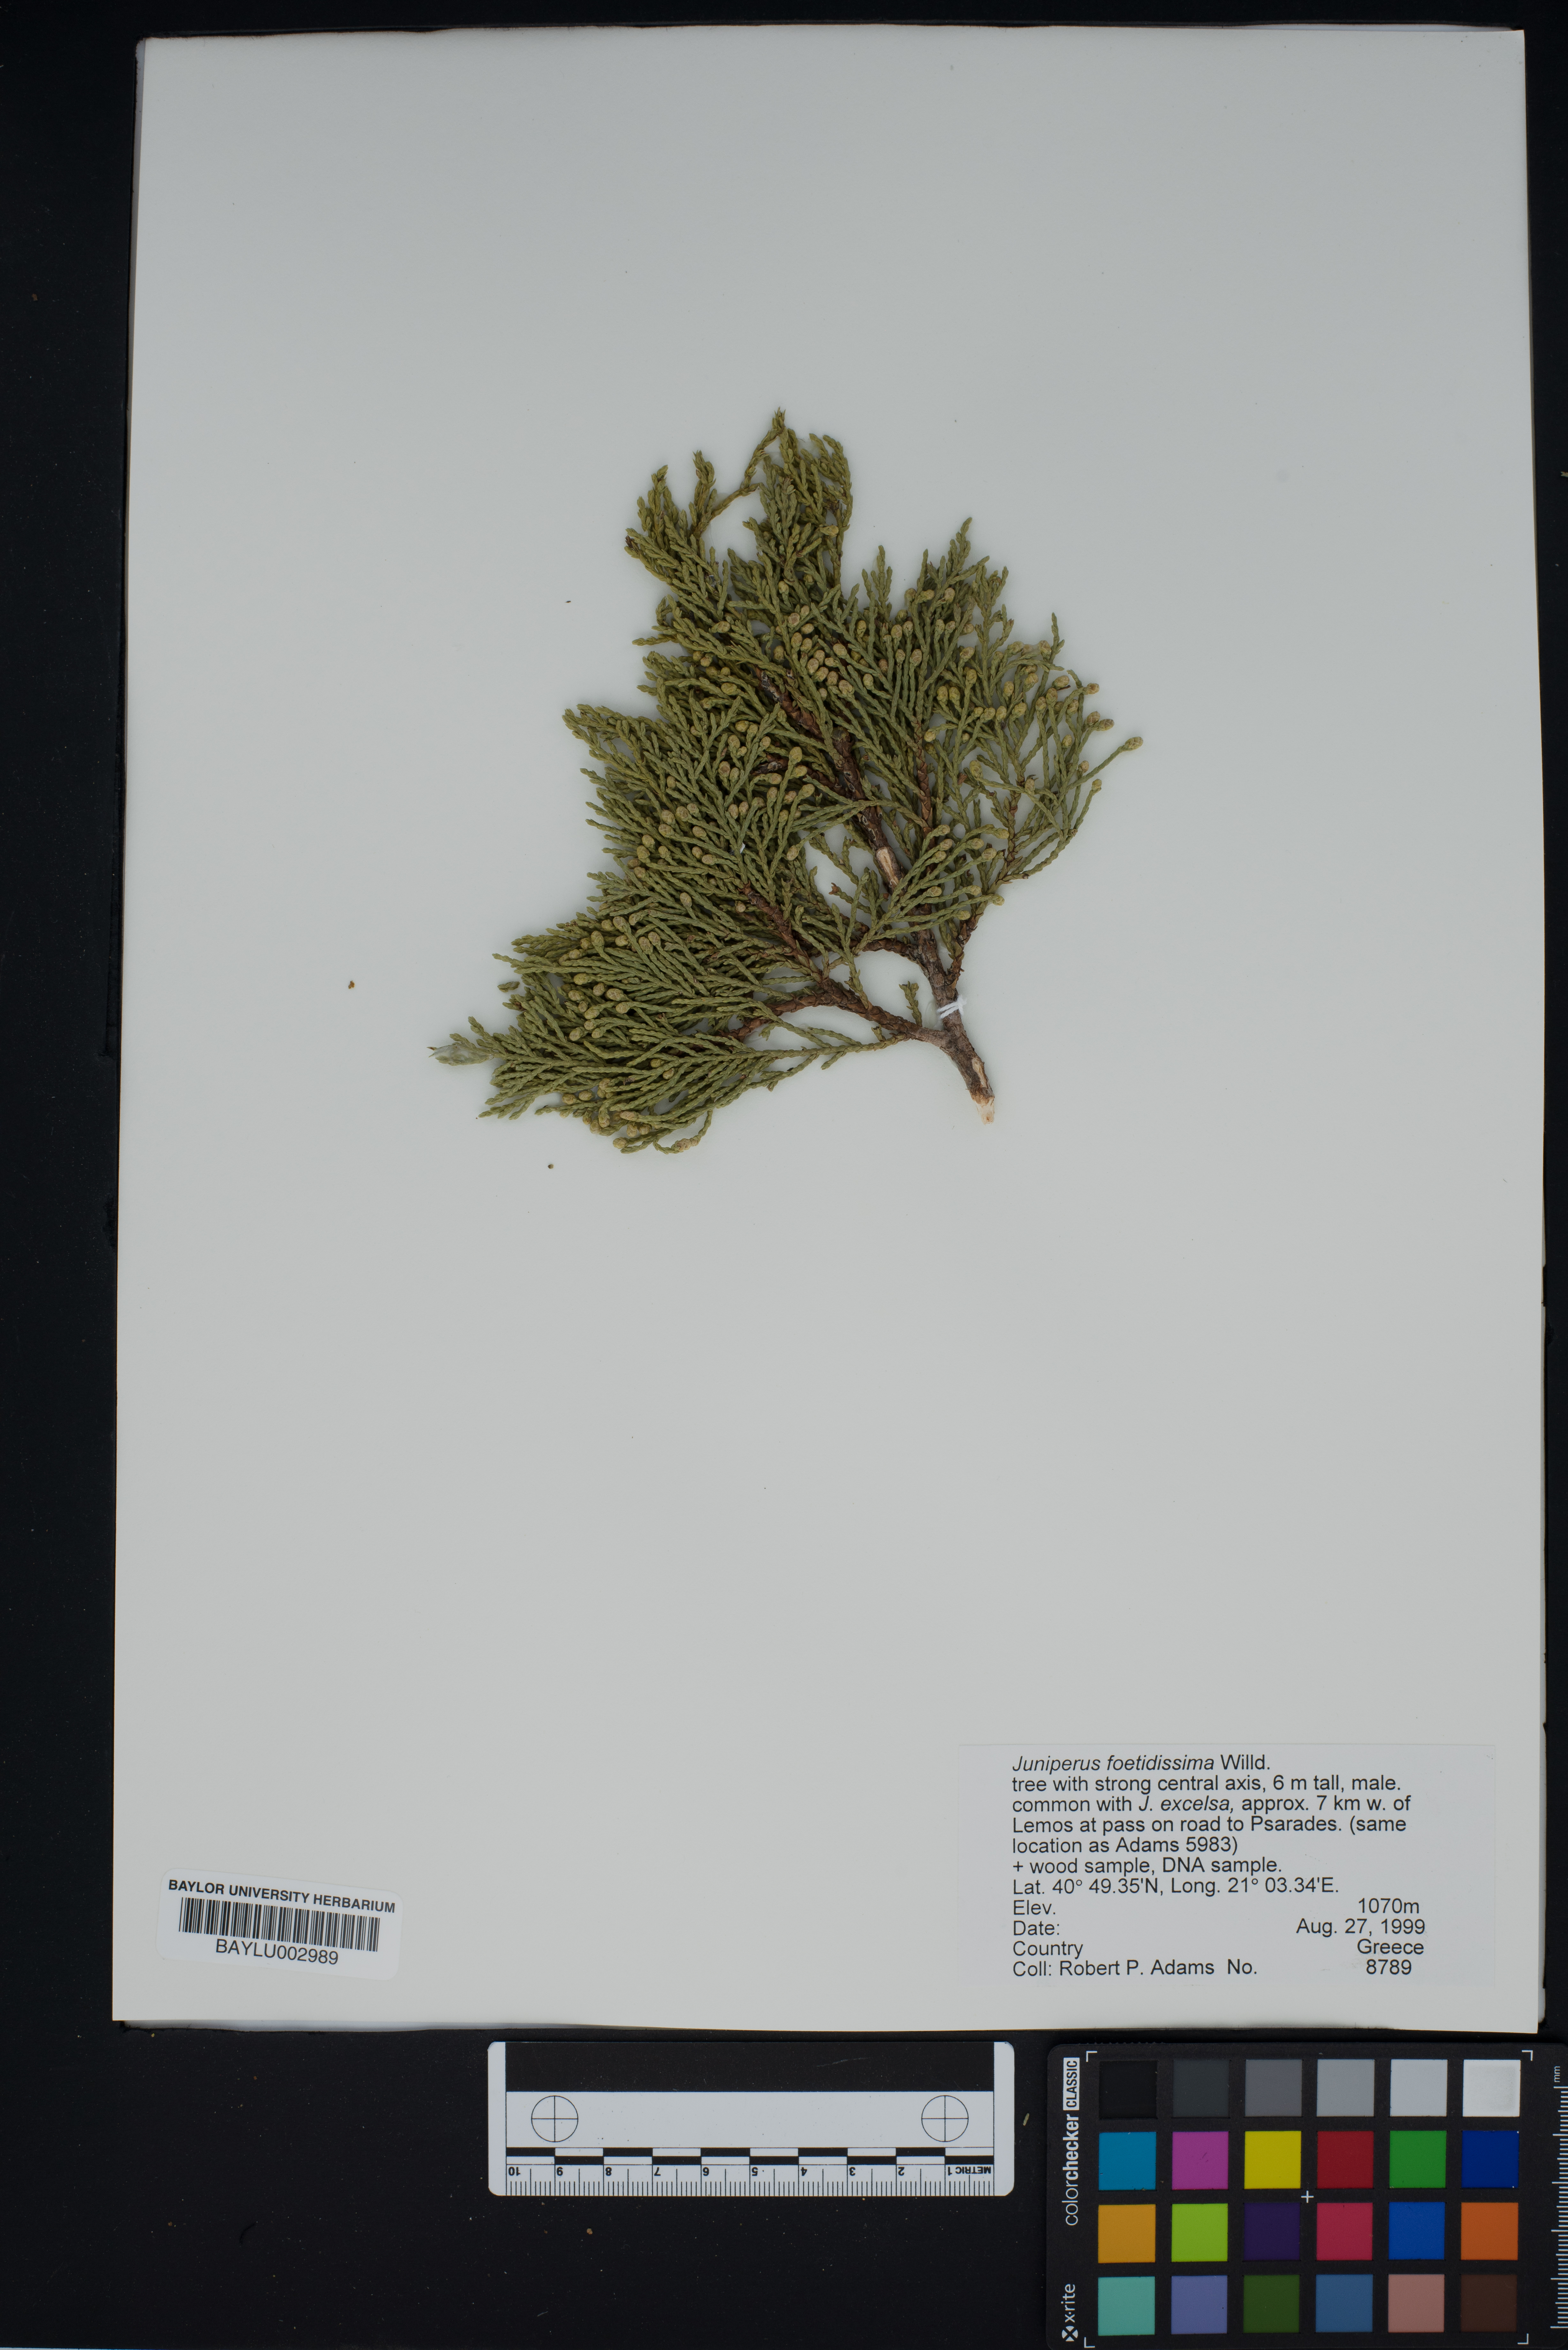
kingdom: Plantae
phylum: Tracheophyta
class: Pinopsida
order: Pinales
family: Cupressaceae
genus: Juniperus
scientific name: Juniperus foetidissima
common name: Stinking juniper
